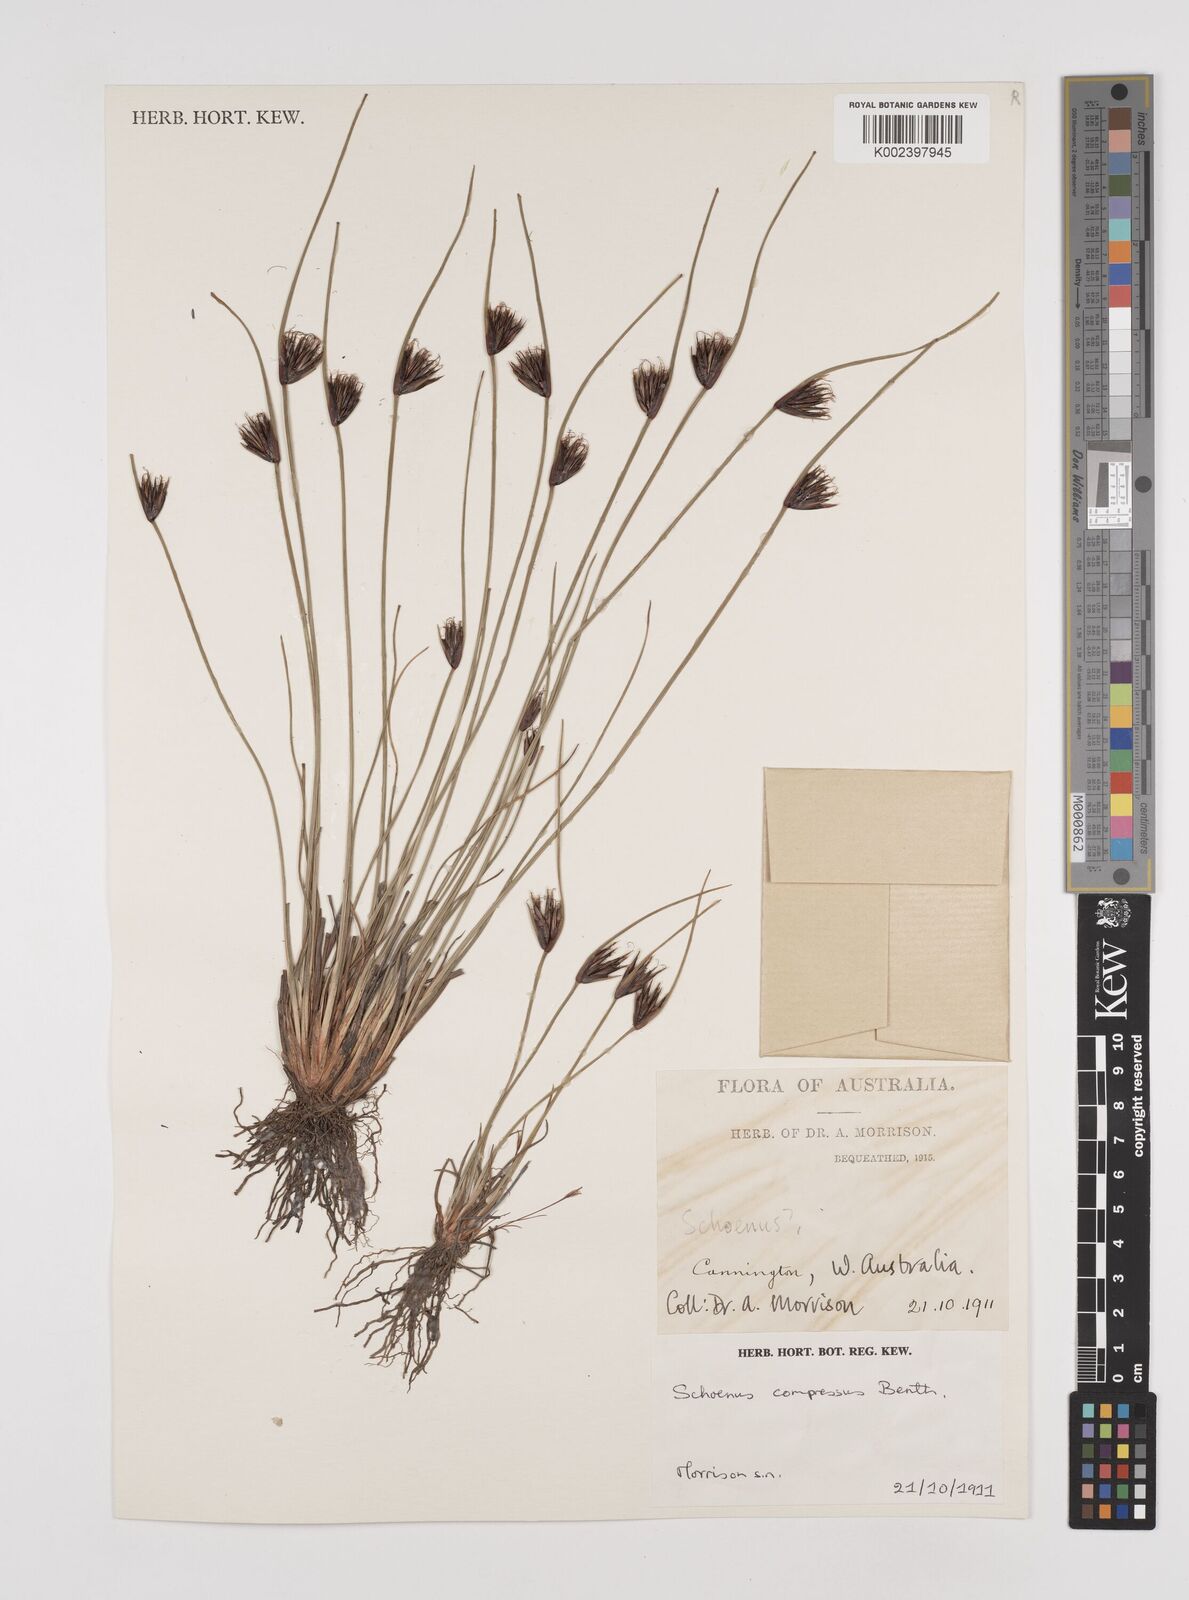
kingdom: Plantae
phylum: Tracheophyta
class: Liliopsida
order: Poales
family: Cyperaceae
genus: Schoenus
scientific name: Schoenus benthamii
